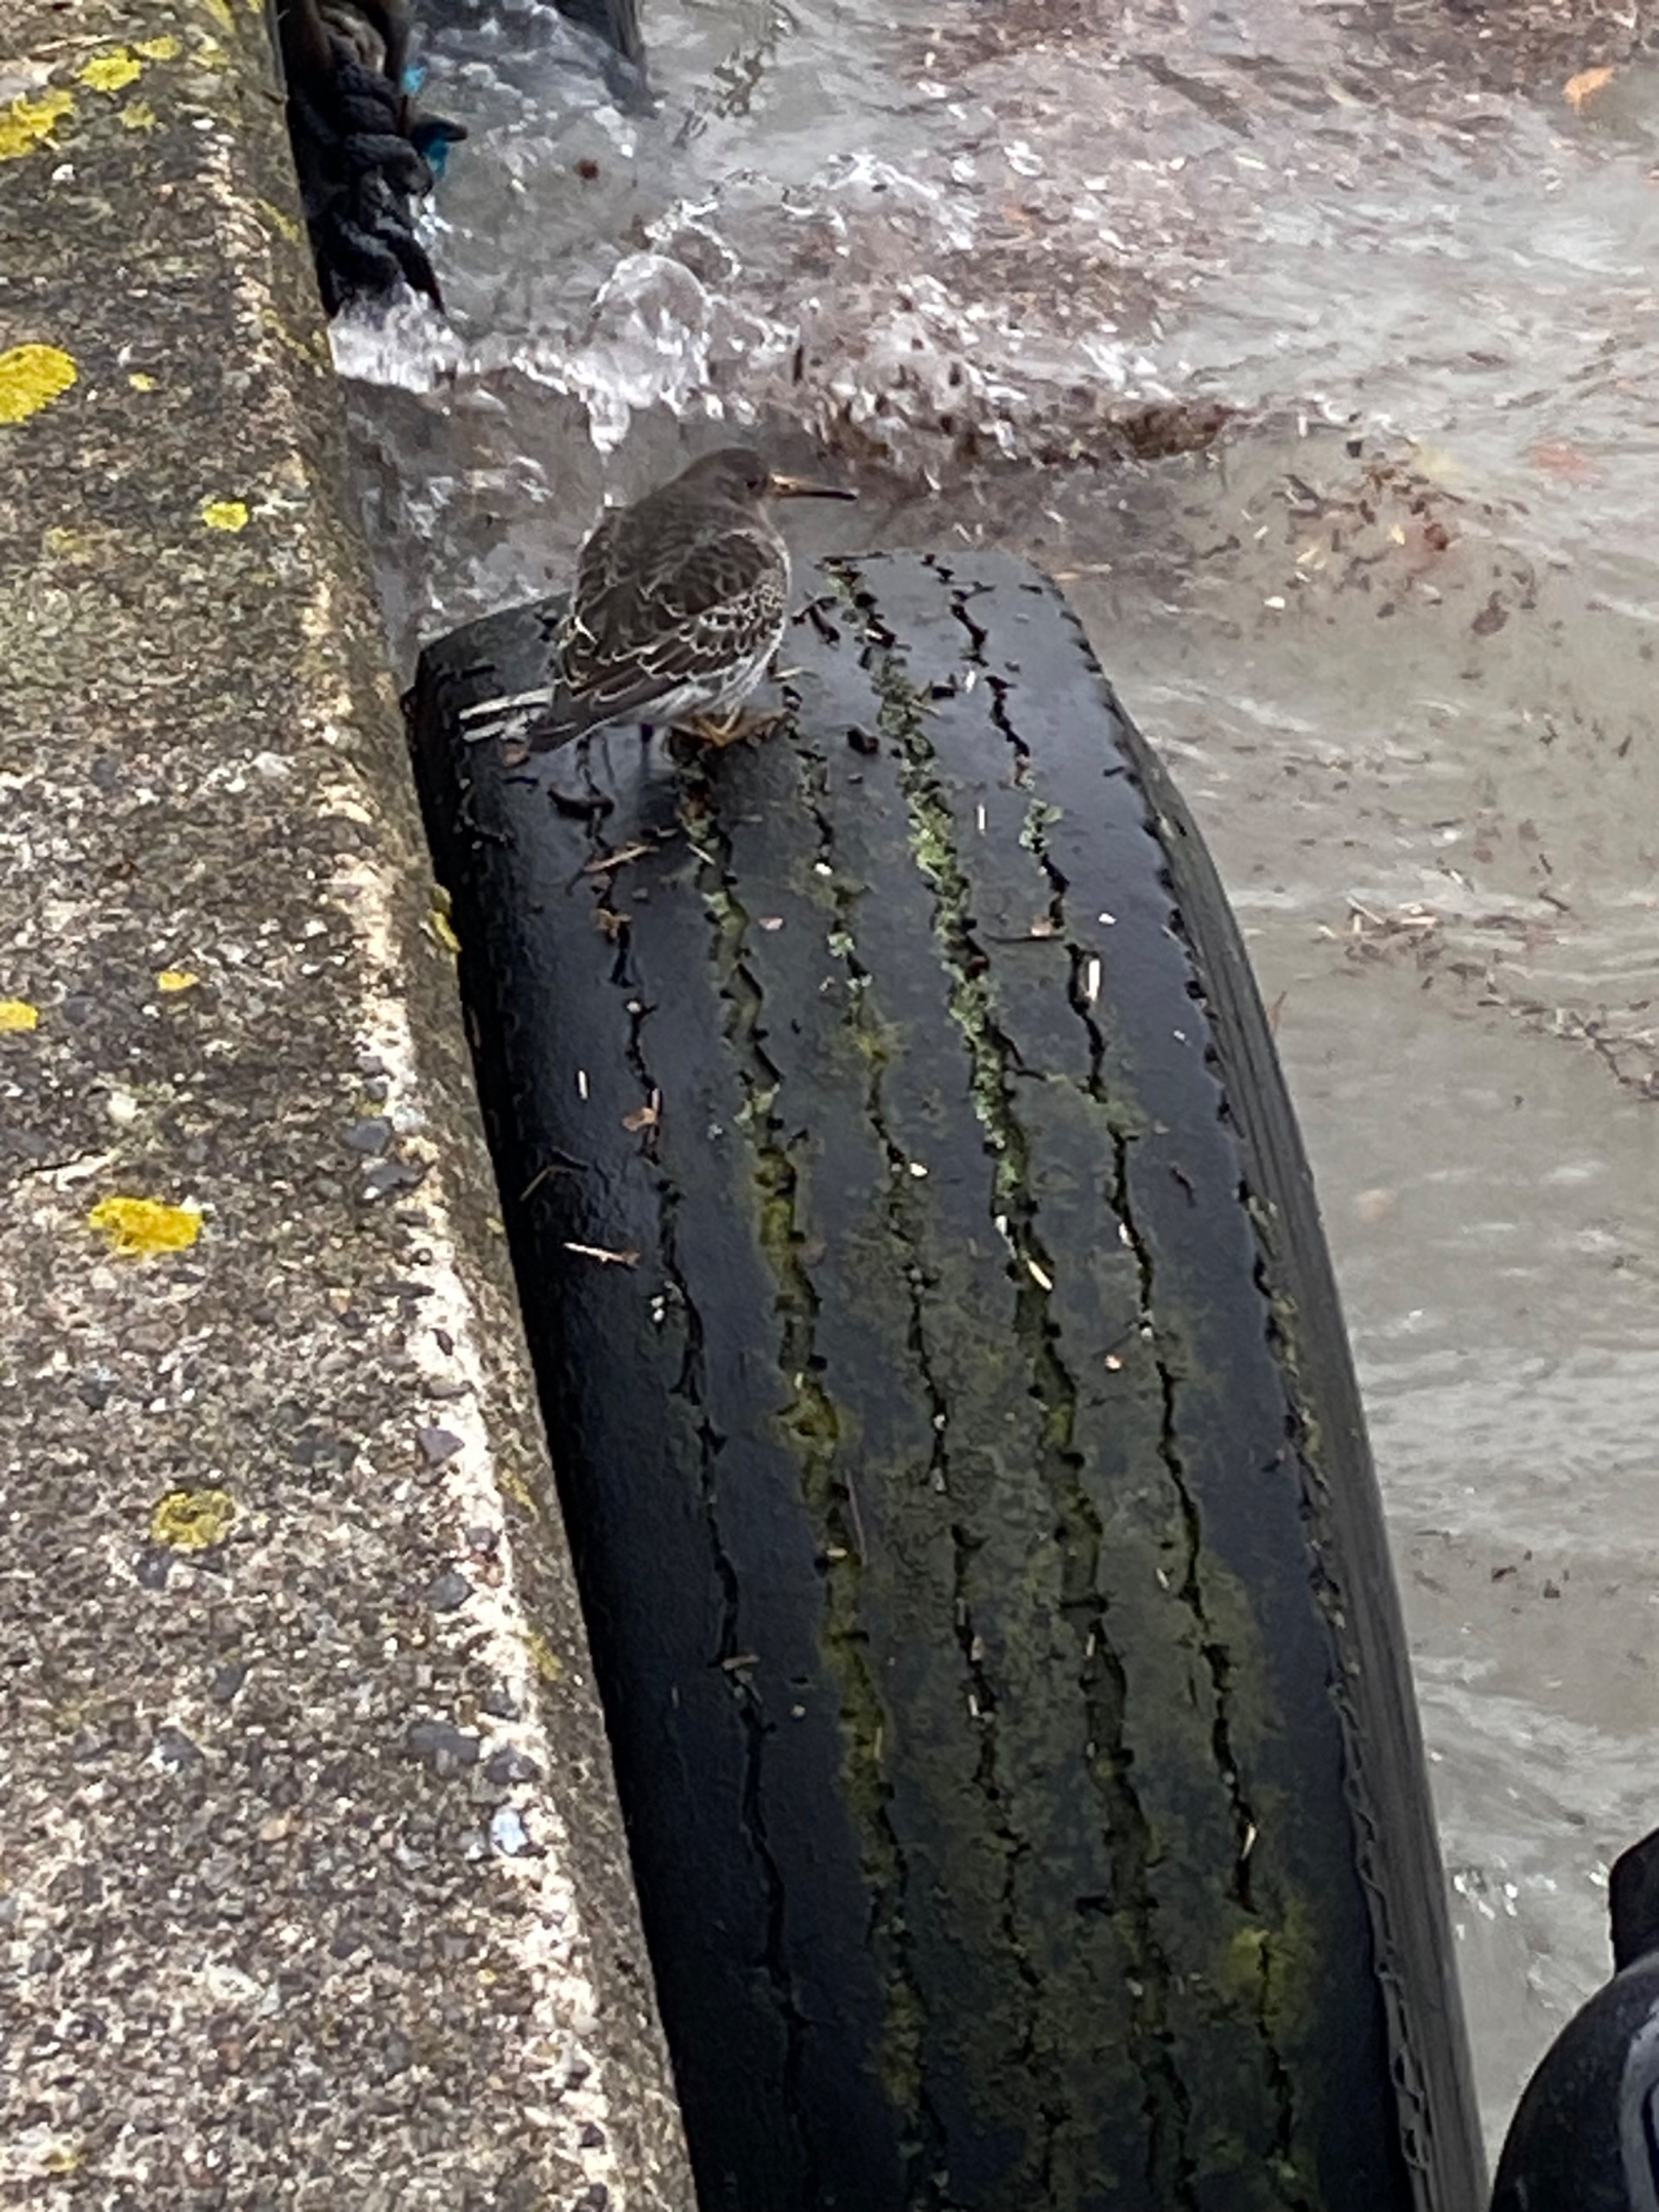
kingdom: Animalia
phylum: Chordata
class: Aves
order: Charadriiformes
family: Scolopacidae
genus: Calidris
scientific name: Calidris maritima
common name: Sortgrå ryle
